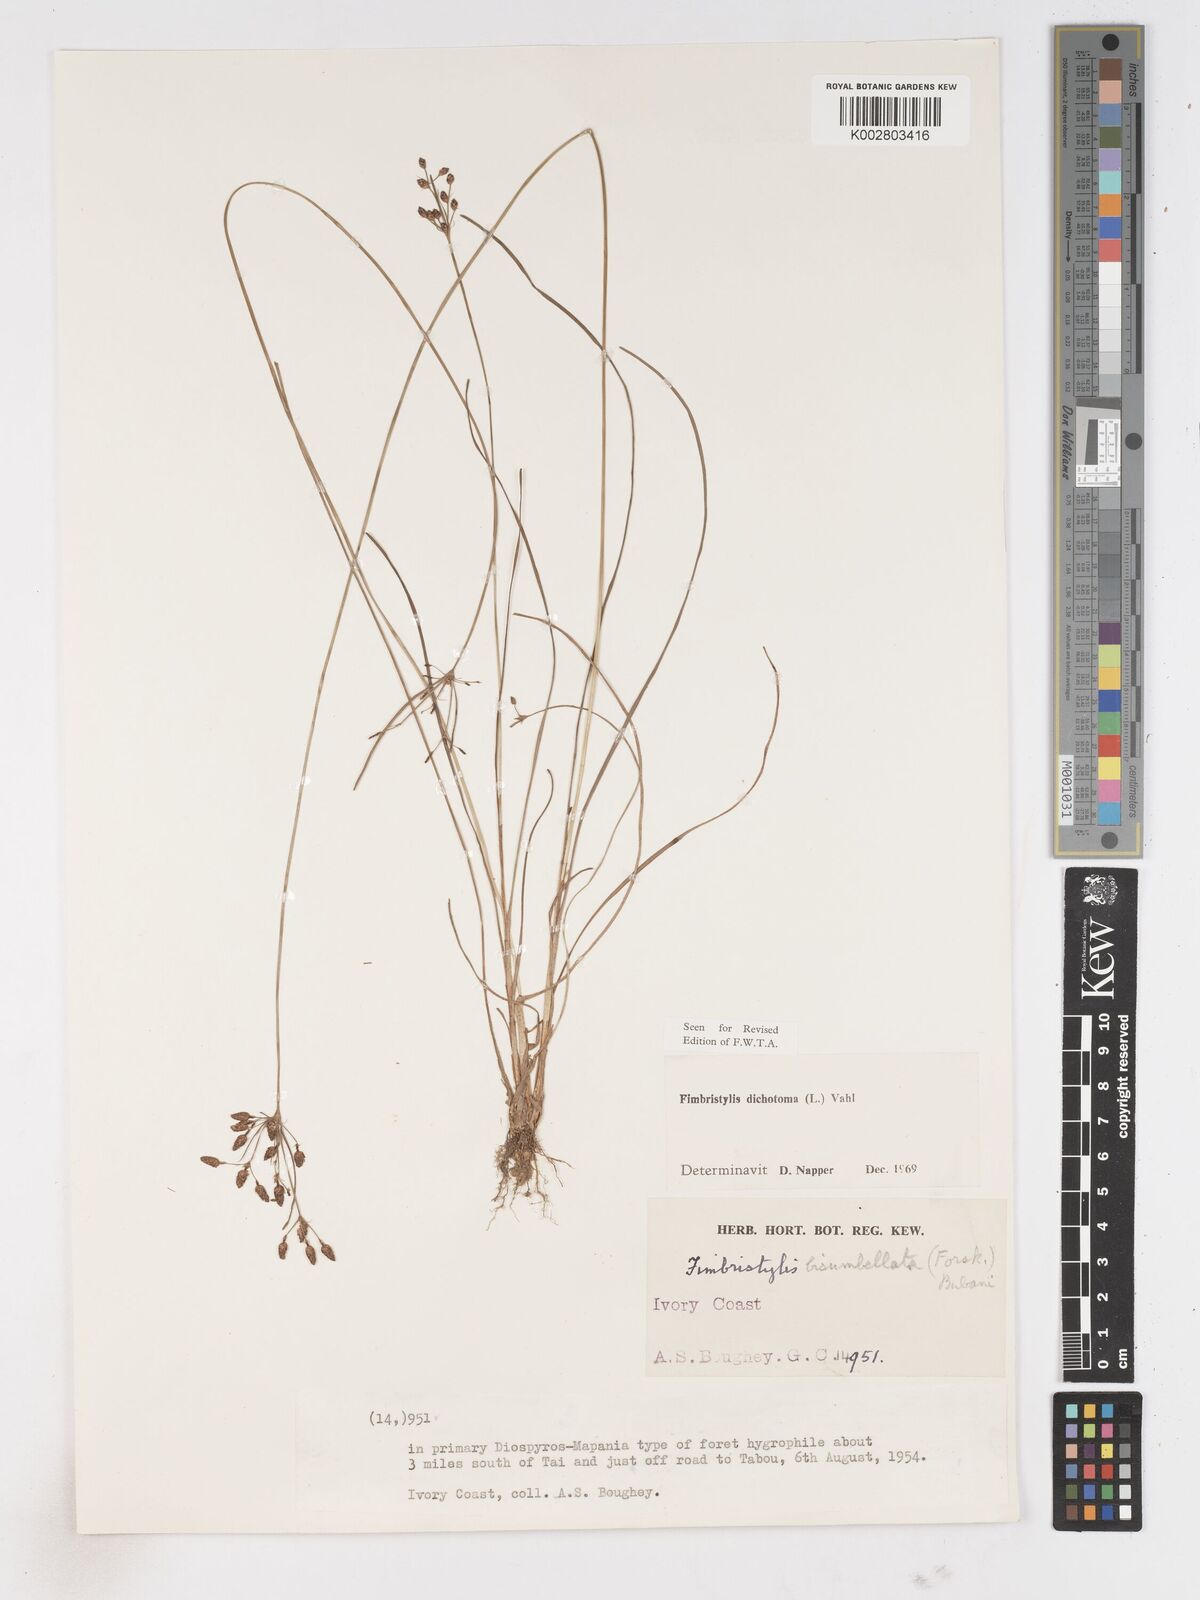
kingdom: Plantae
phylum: Tracheophyta
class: Liliopsida
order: Poales
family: Cyperaceae
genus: Fimbristylis
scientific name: Fimbristylis dichotoma
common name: Forked fimbry
